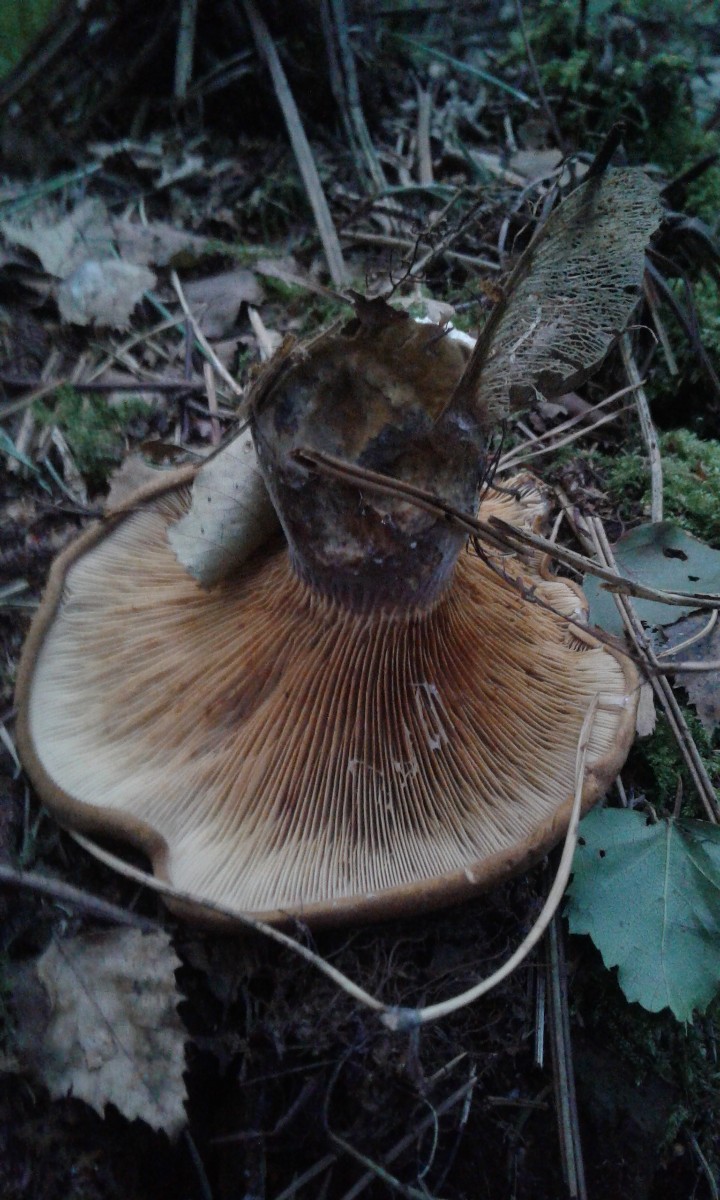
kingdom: Fungi
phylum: Basidiomycota
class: Agaricomycetes
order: Boletales
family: Tapinellaceae
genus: Tapinella
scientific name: Tapinella atrotomentosa
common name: sortfiltet viftesvamp
